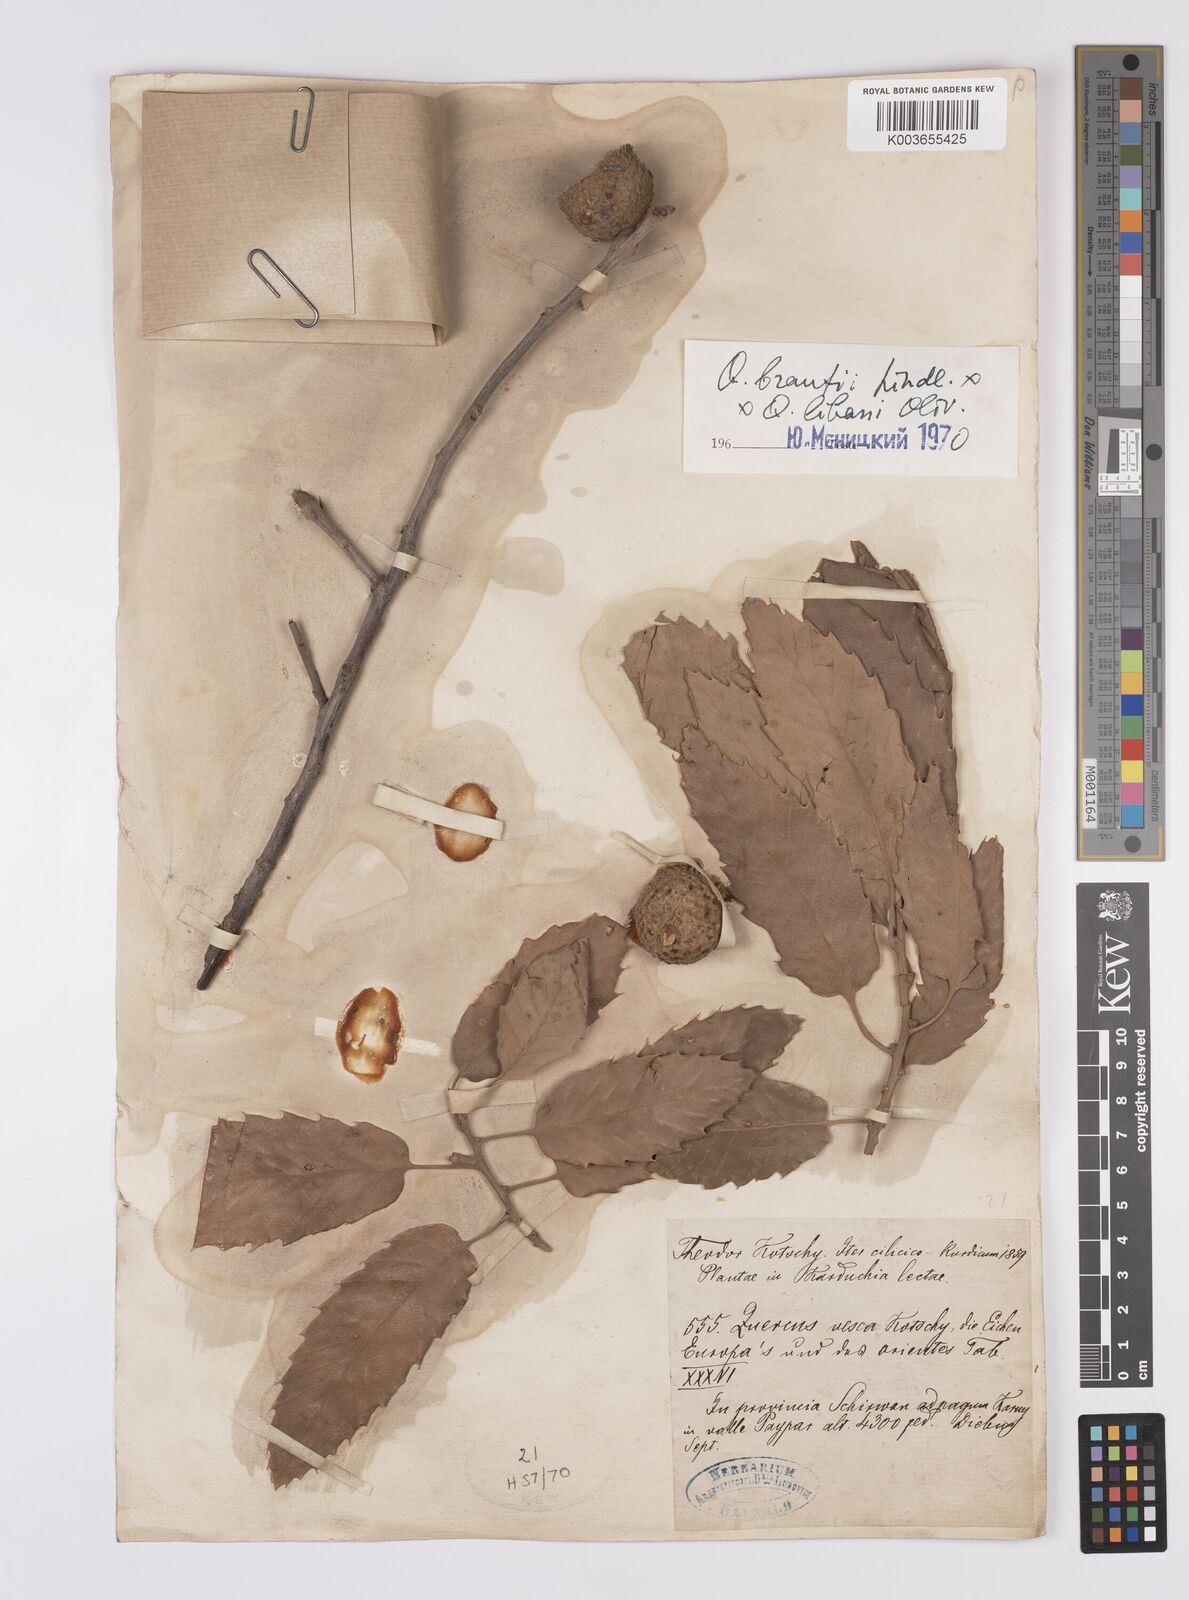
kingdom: Plantae
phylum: Tracheophyta
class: Magnoliopsida
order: Fagales
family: Fagaceae
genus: Quercus
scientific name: Quercus brantii
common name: Brant oak
